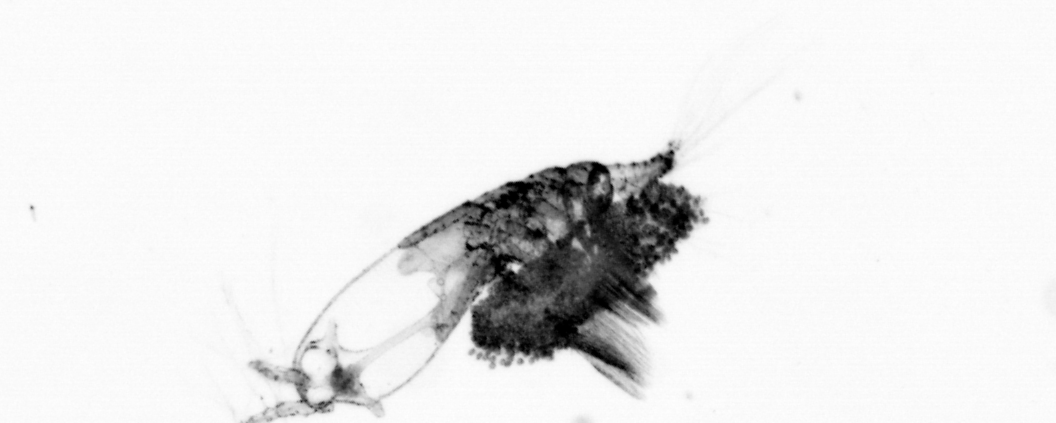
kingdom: Animalia
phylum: Arthropoda
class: Copepoda
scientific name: Copepoda
